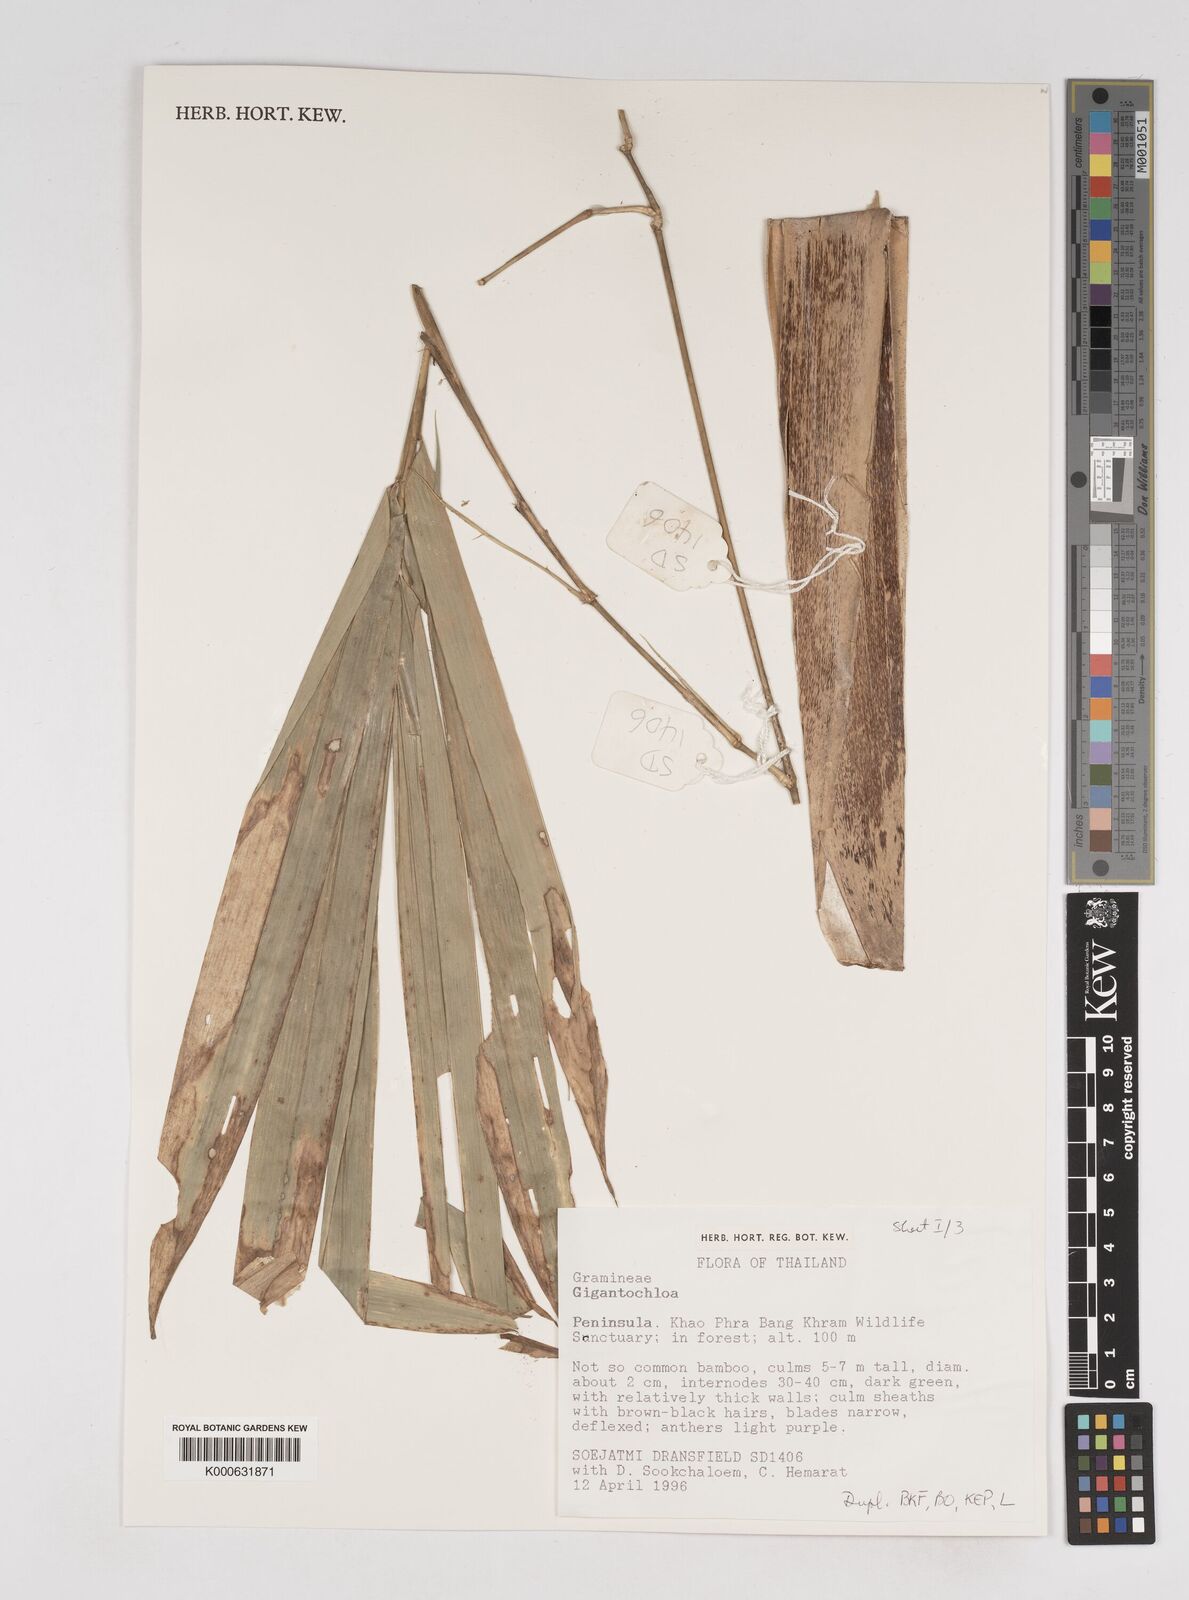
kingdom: Plantae
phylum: Tracheophyta
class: Liliopsida
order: Poales
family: Poaceae
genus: Gigantochloa
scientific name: Gigantochloa
